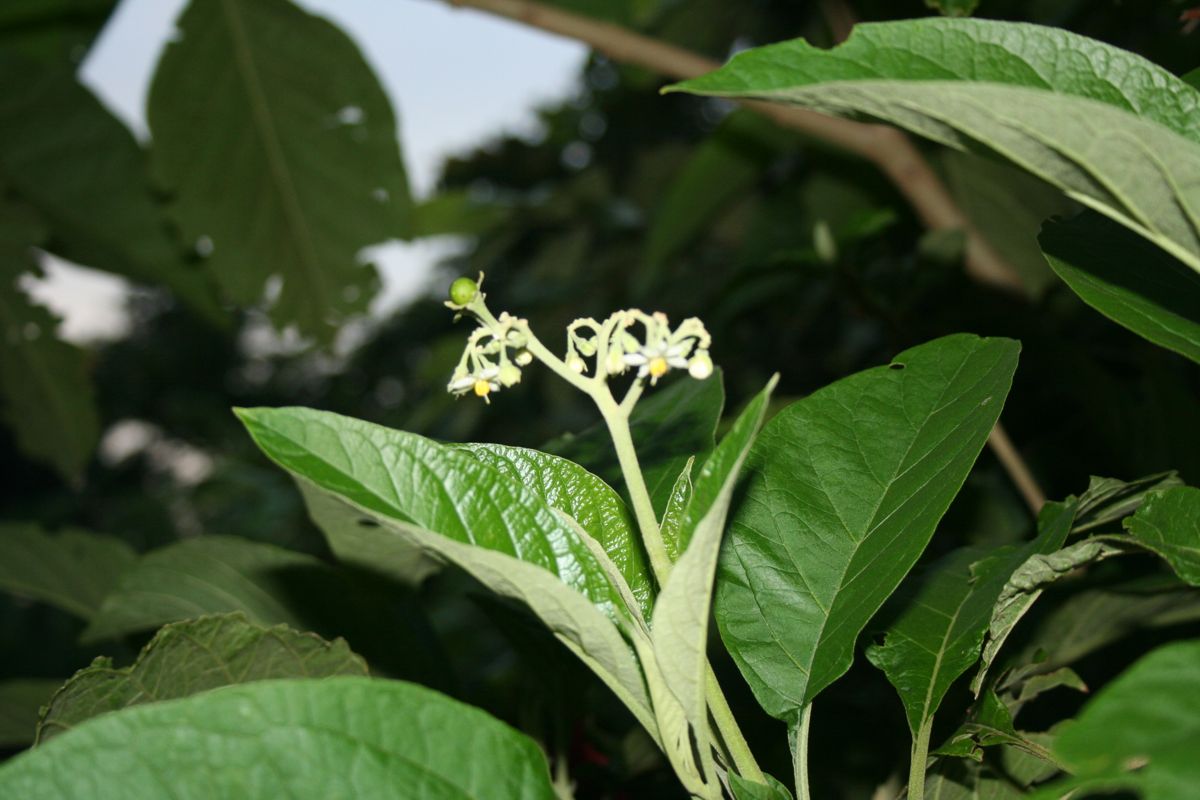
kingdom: Plantae
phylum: Tracheophyta
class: Magnoliopsida
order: Solanales
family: Solanaceae
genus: Solanum
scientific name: Solanum hazenii
